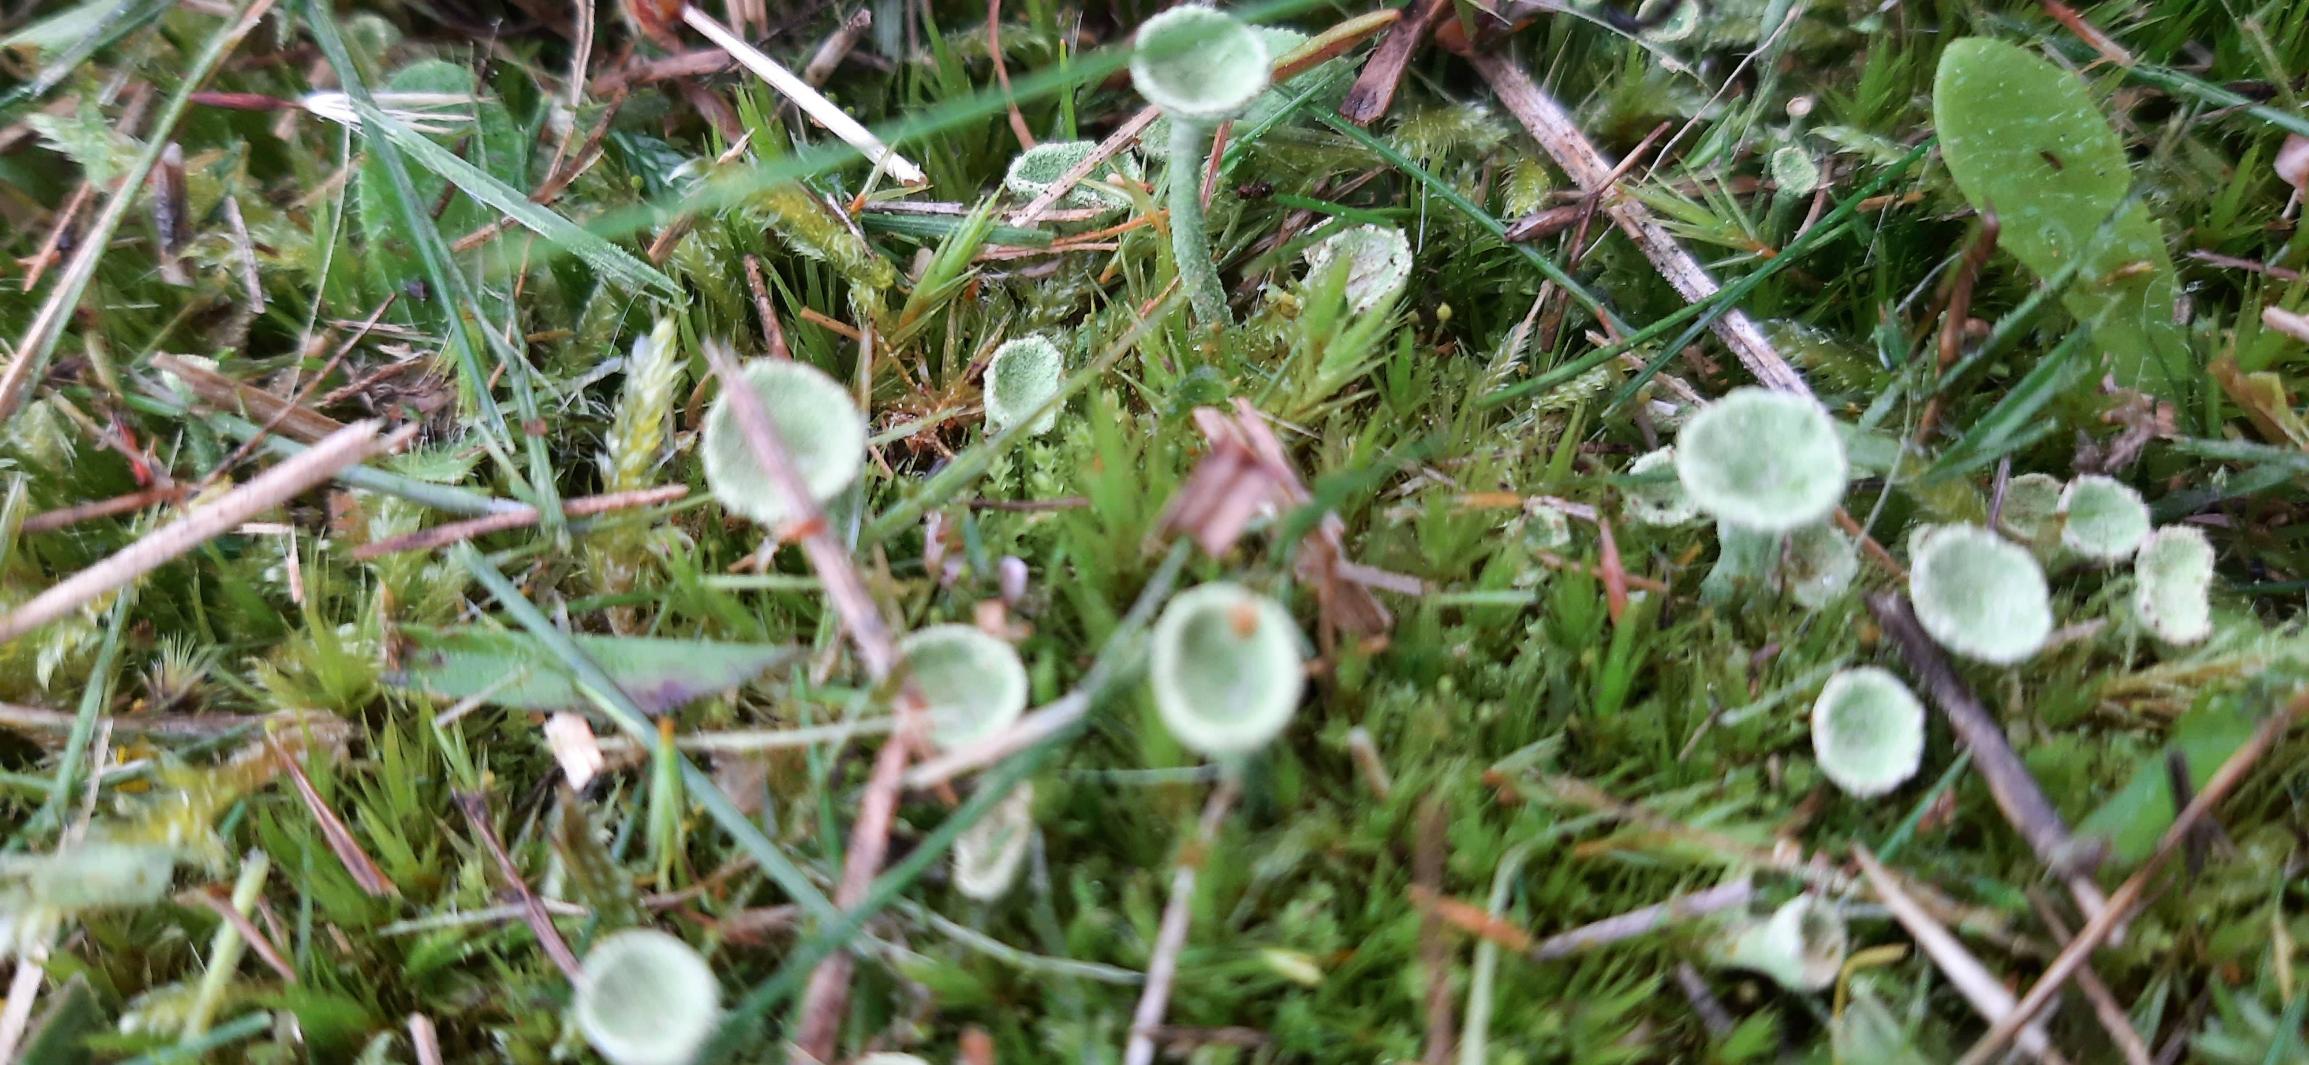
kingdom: Fungi
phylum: Ascomycota
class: Lecanoromycetes
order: Lecanorales
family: Cladoniaceae
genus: Cladonia
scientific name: Cladonia fimbriata
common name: Bleggrøn bægerlav
